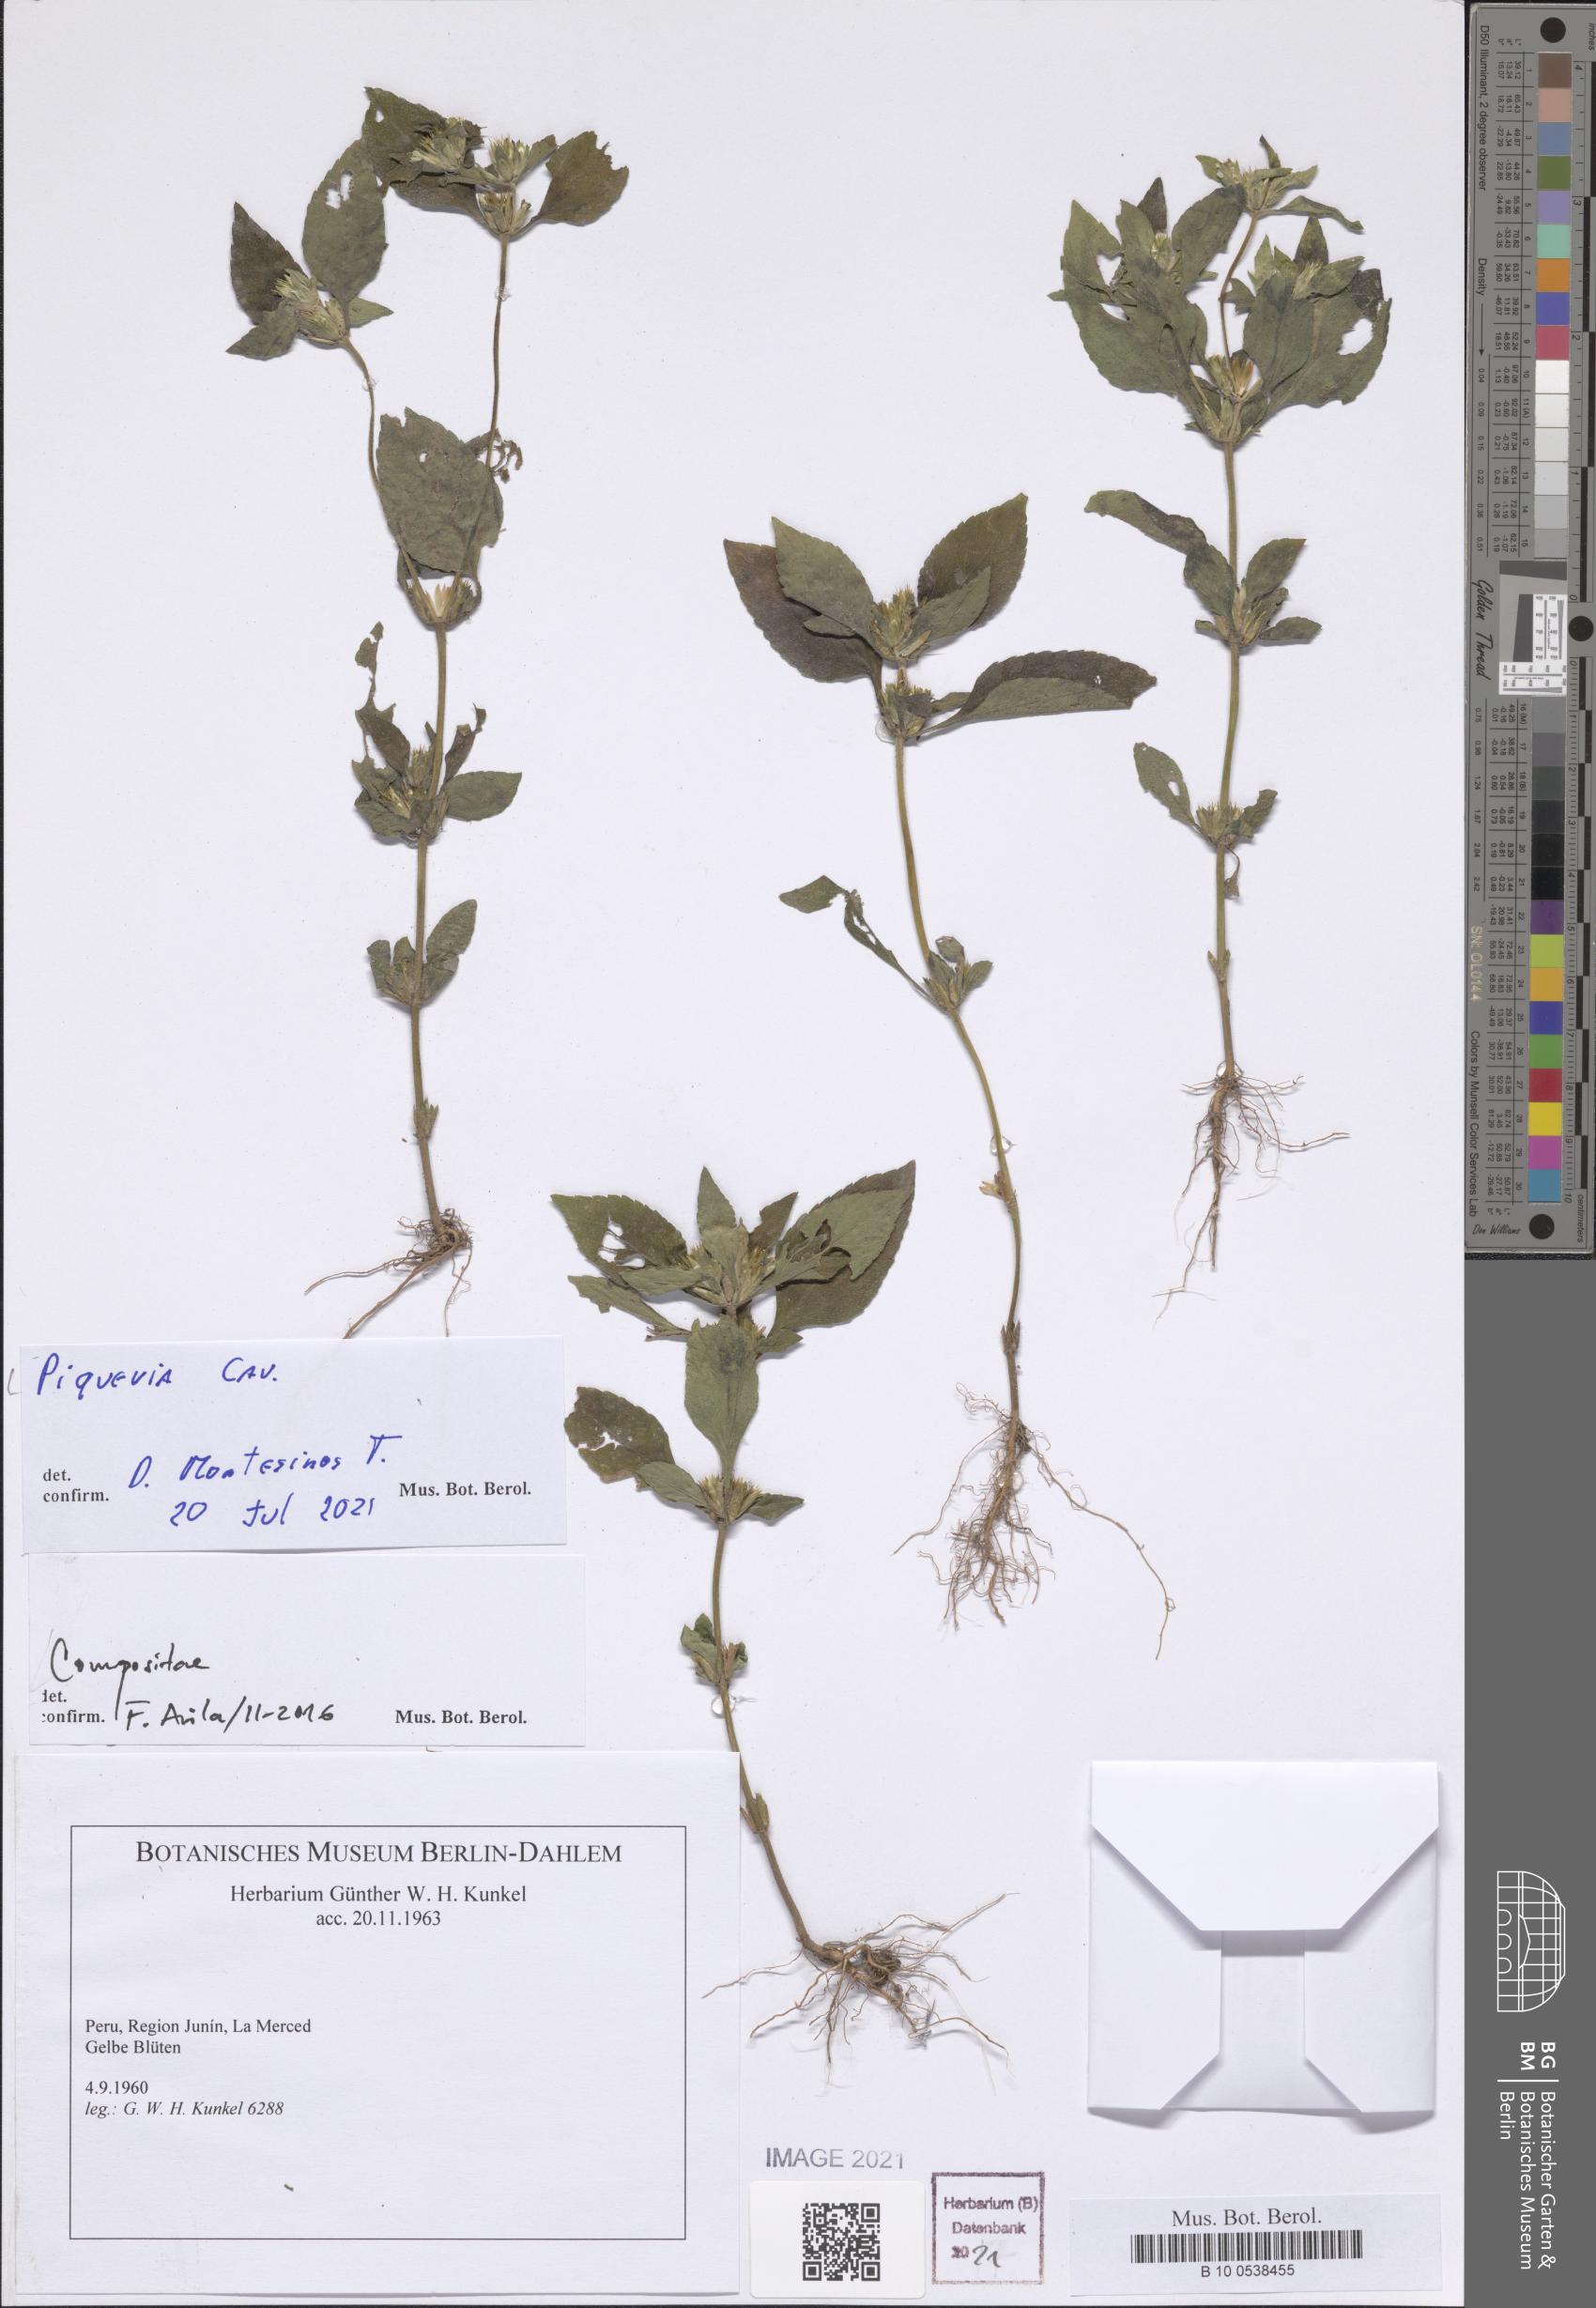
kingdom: Plantae
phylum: Tracheophyta
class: Magnoliopsida
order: Asterales
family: Asteraceae
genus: Piqueria
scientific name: Piqueria
